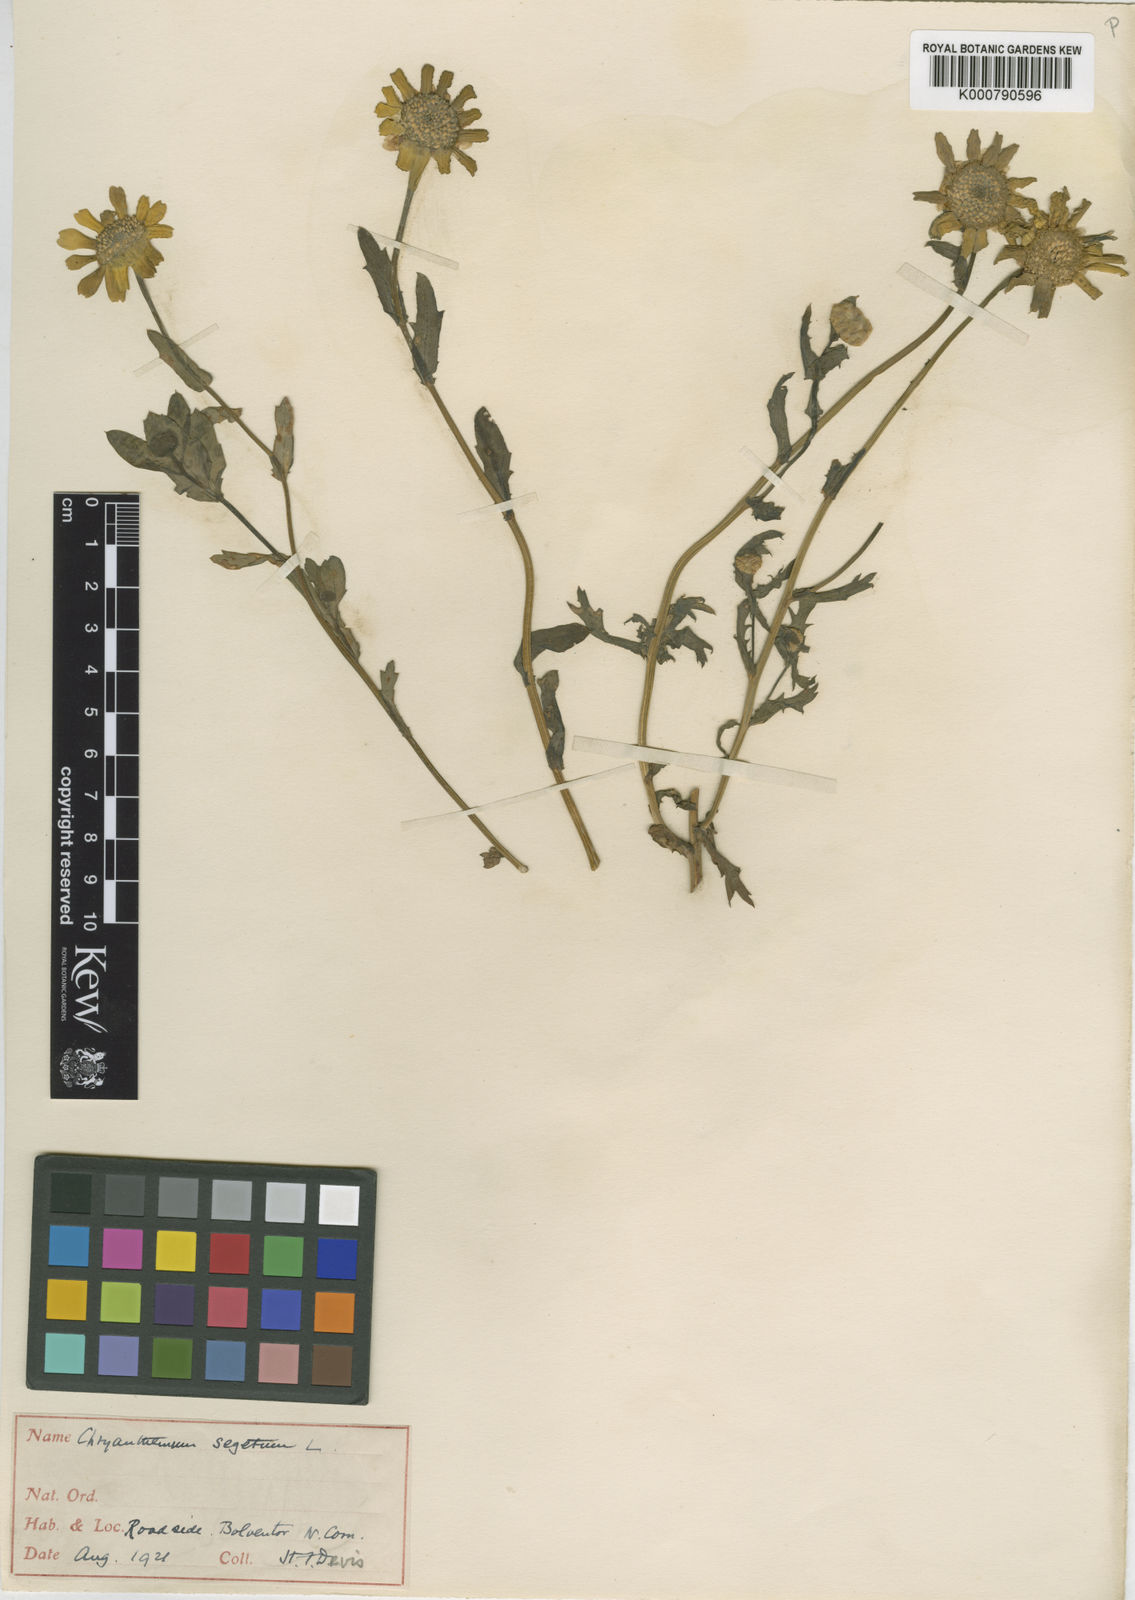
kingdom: Plantae
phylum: Tracheophyta
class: Magnoliopsida
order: Asterales
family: Asteraceae
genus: Glebionis
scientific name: Glebionis
